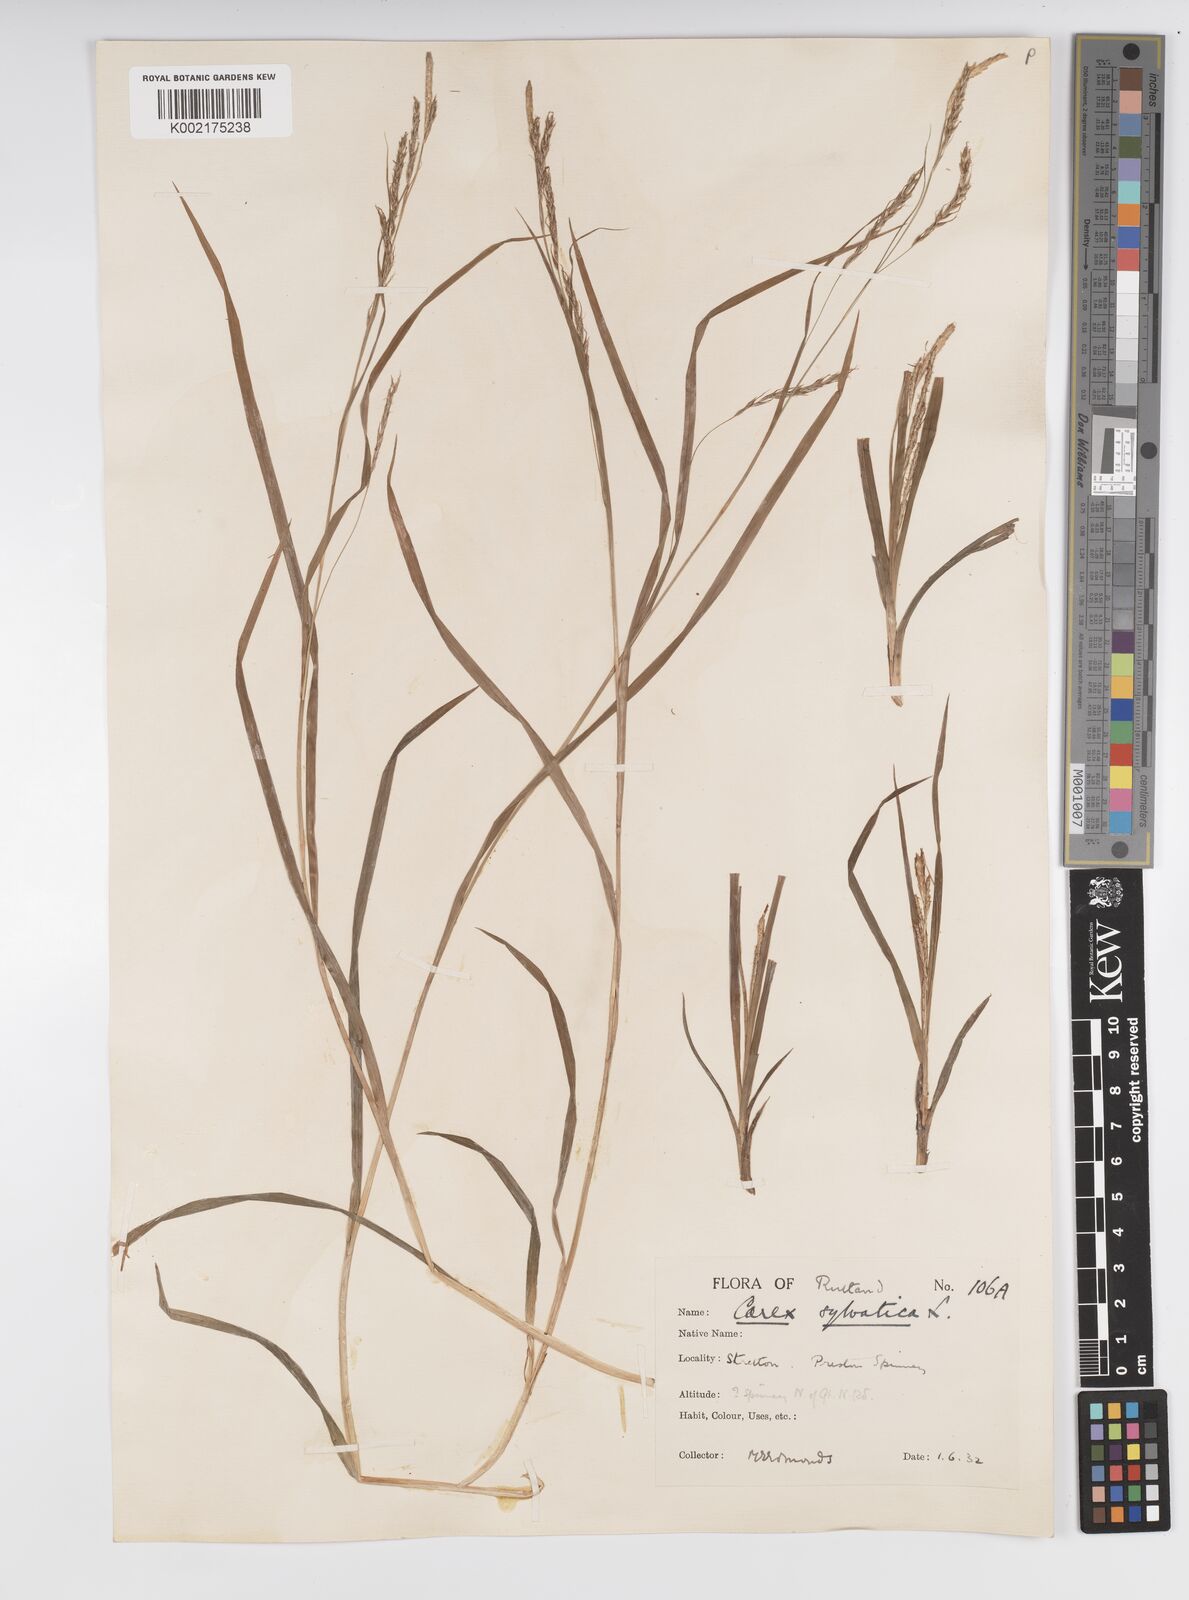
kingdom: Plantae
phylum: Tracheophyta
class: Liliopsida
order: Poales
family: Cyperaceae
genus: Carex
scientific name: Carex sylvatica
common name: Wood-sedge
